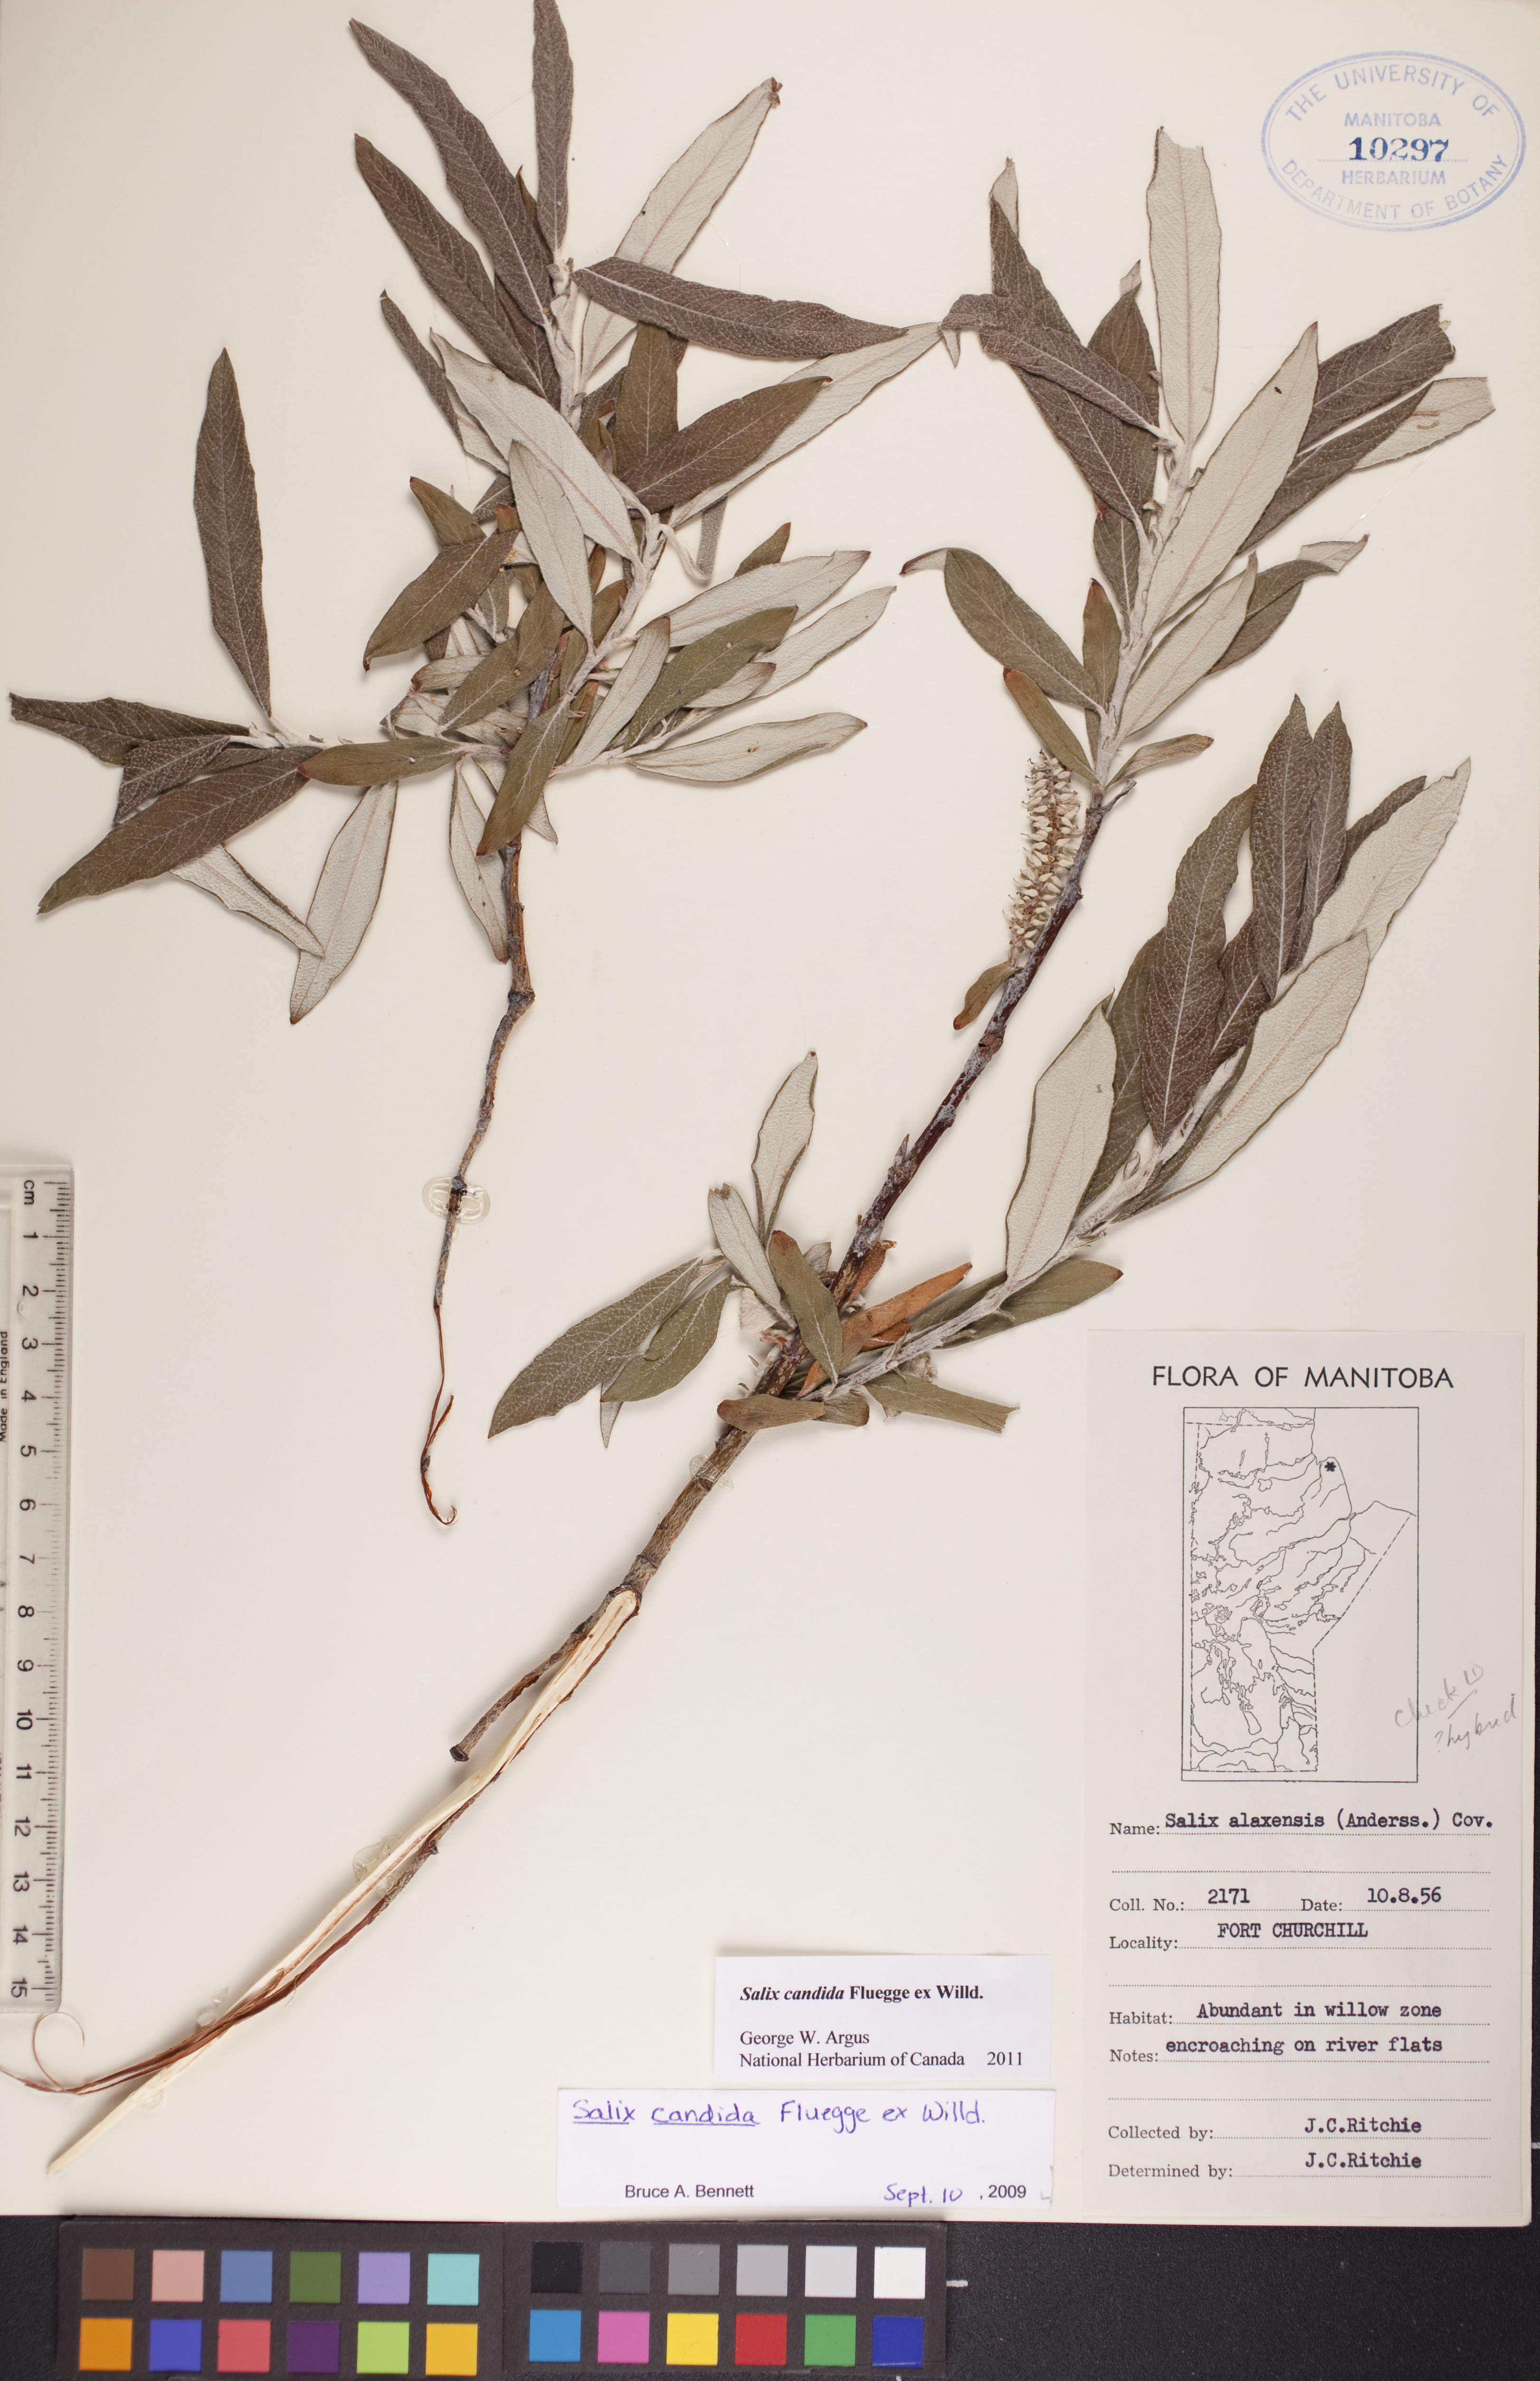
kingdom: Plantae
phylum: Tracheophyta
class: Magnoliopsida
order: Malpighiales
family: Salicaceae
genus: Salix
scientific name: Salix candida
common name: Hoary willow
